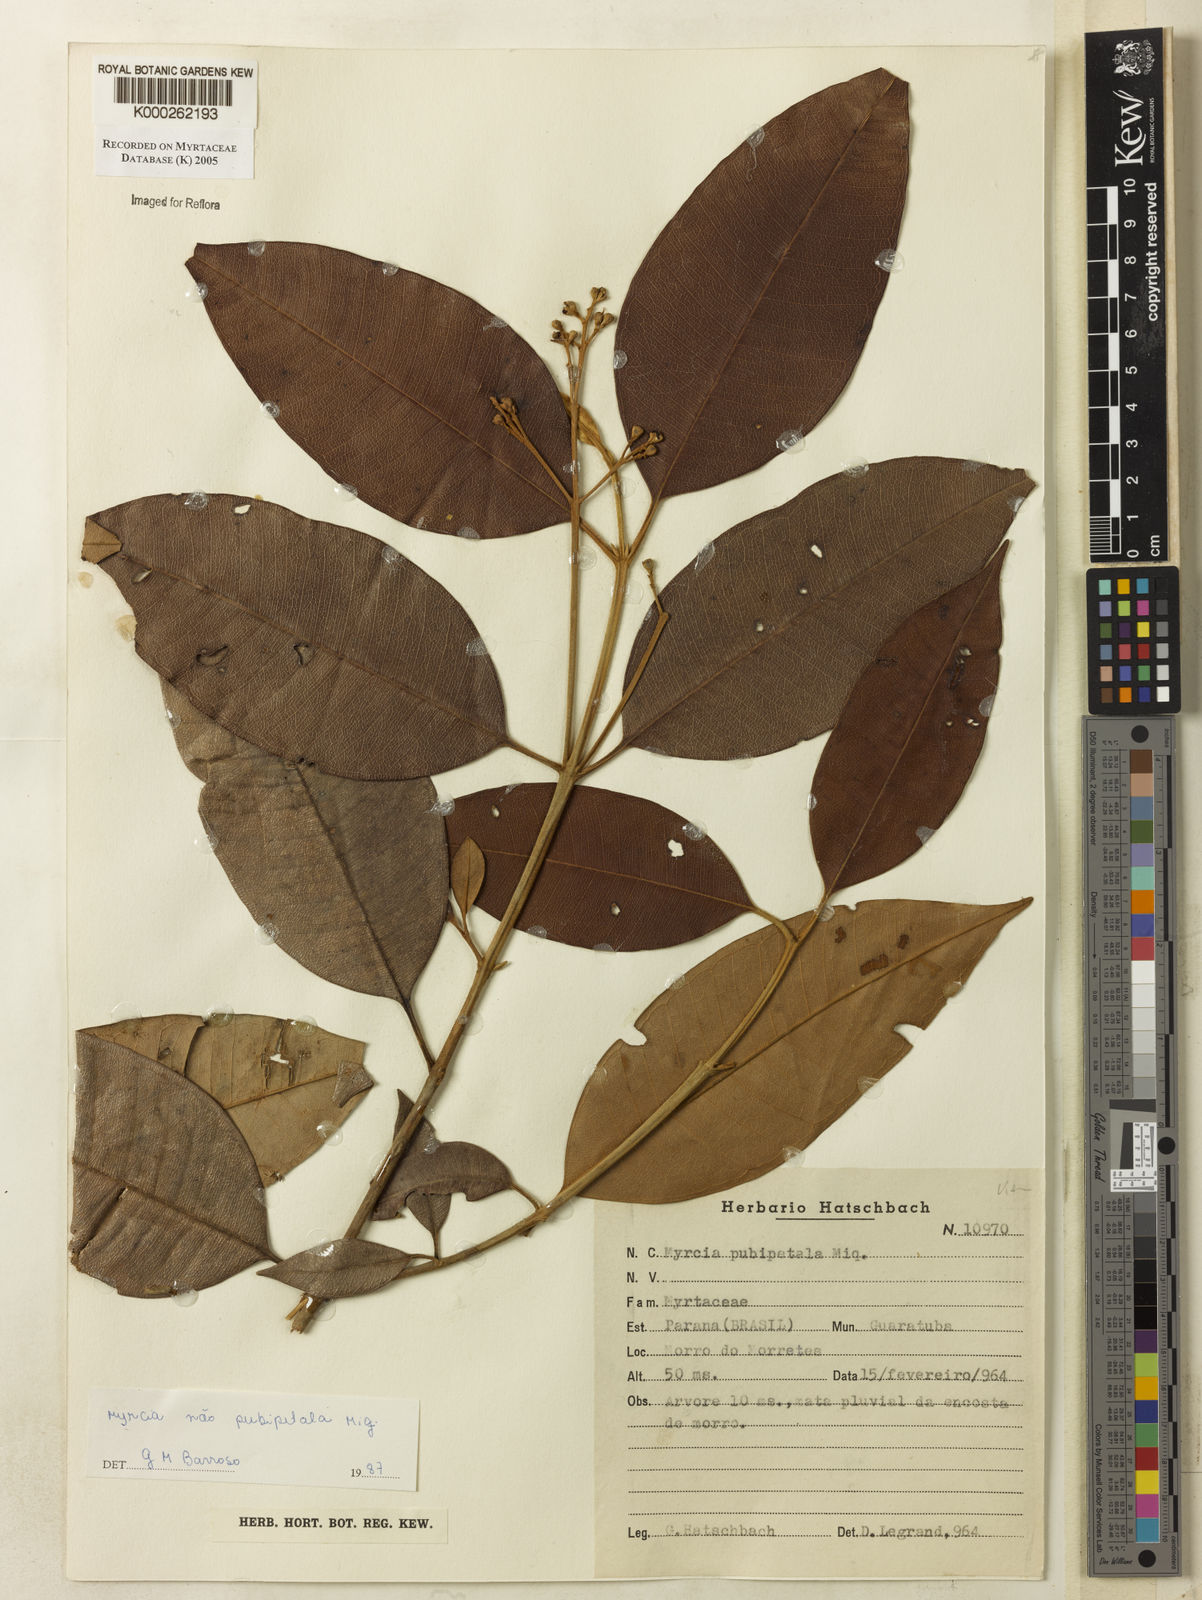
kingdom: Plantae
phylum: Tracheophyta
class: Magnoliopsida
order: Myrtales
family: Myrtaceae
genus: Myrcia
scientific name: Myrcia pubipetala
